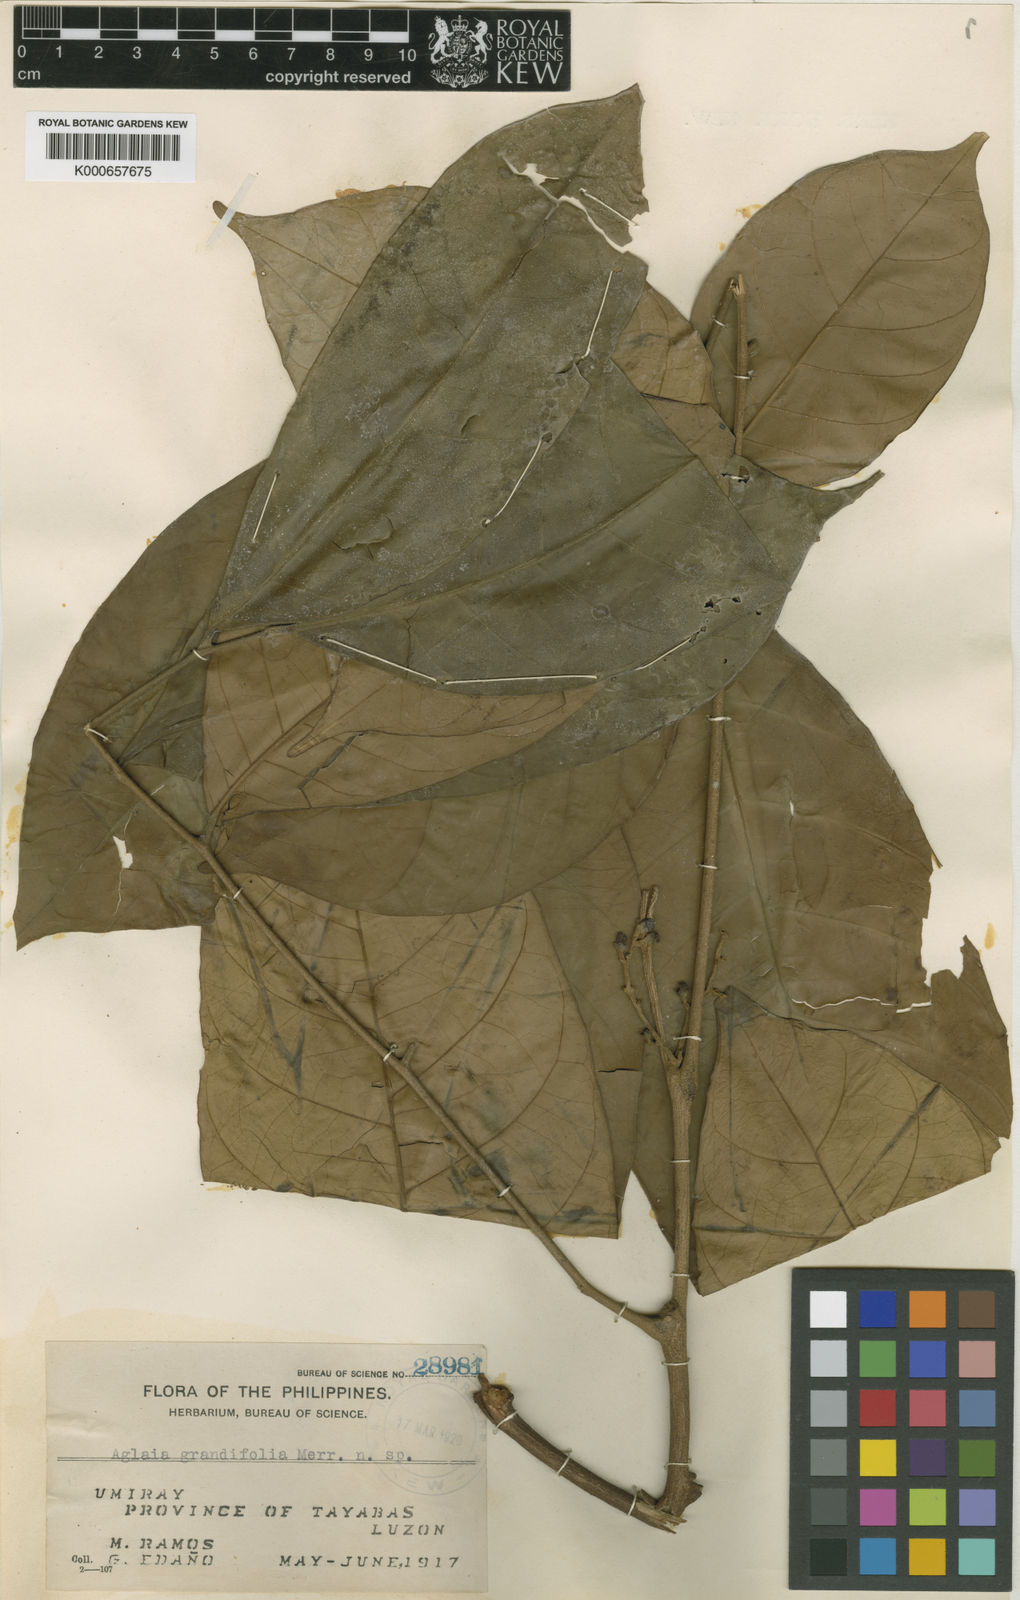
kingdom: Plantae
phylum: Tracheophyta
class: Magnoliopsida
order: Sapindales
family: Meliaceae
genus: Aglaia
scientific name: Aglaia lawii
